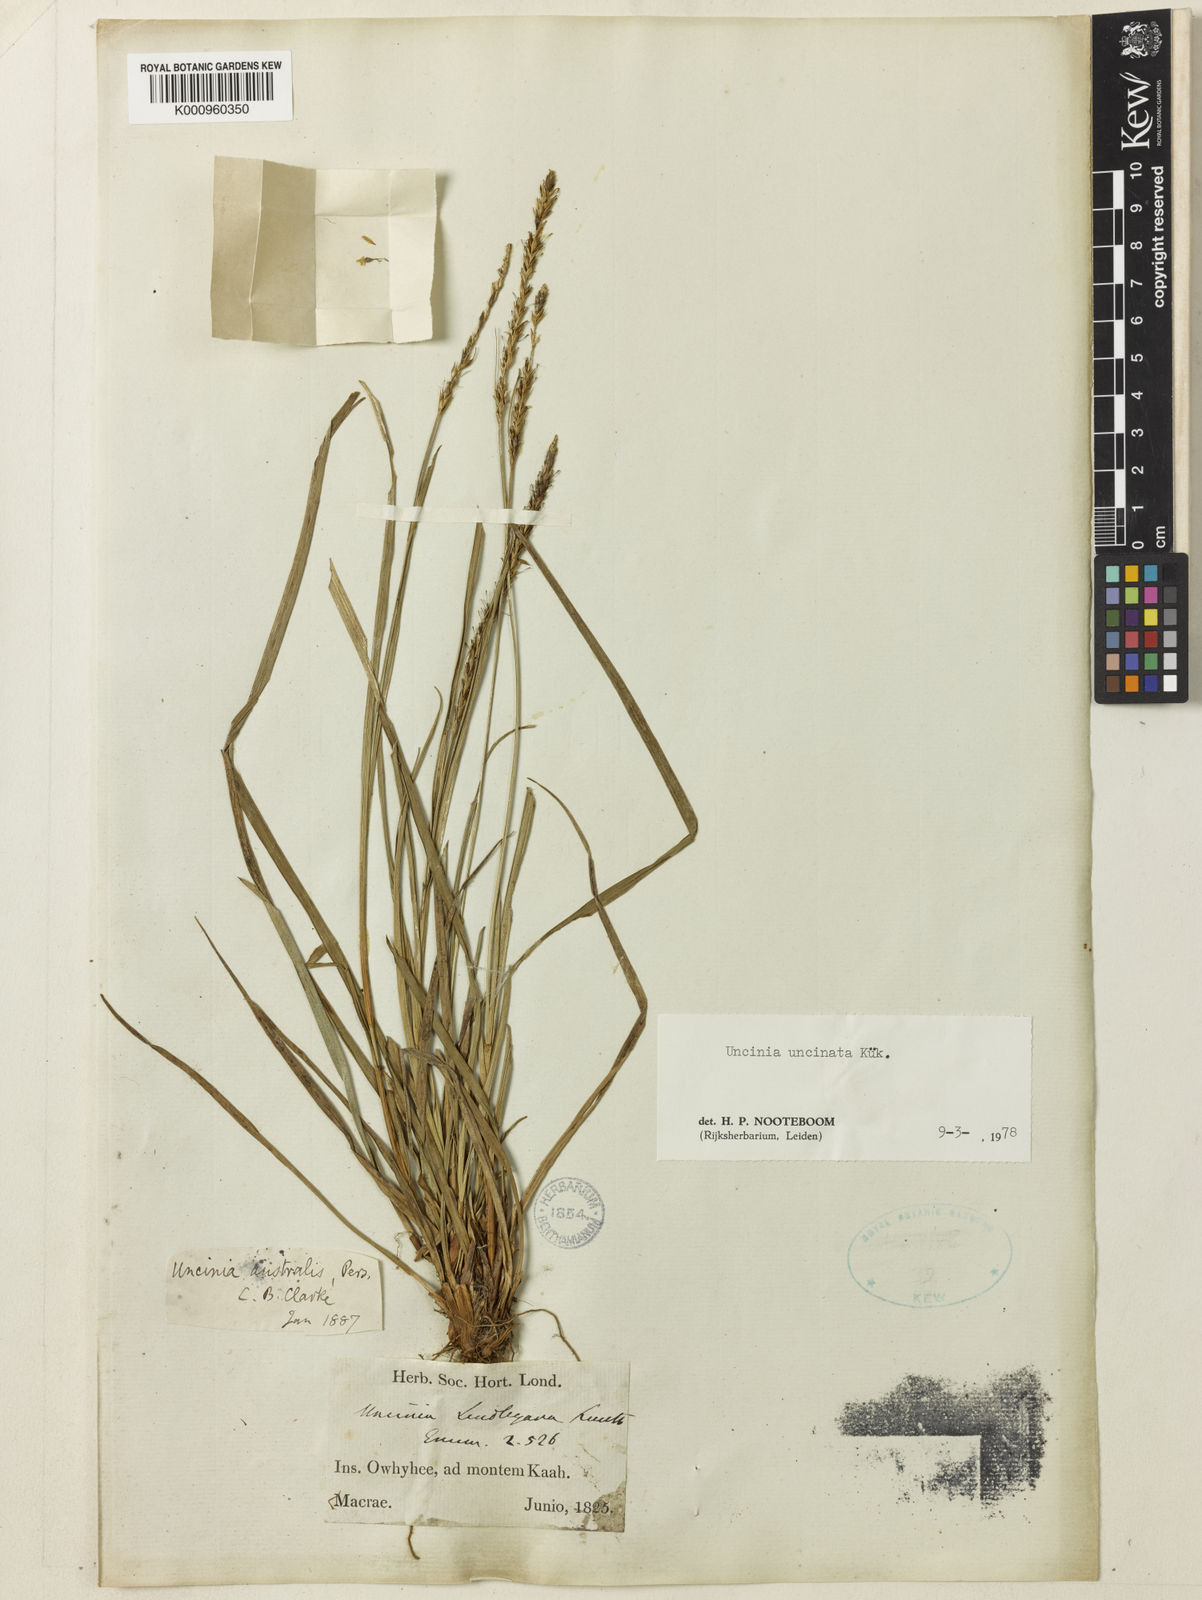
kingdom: Fungi
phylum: Ascomycota
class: Leotiomycetes
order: Helotiales
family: Hamatocanthoscyphaceae
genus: Uncinia
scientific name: Uncinia
